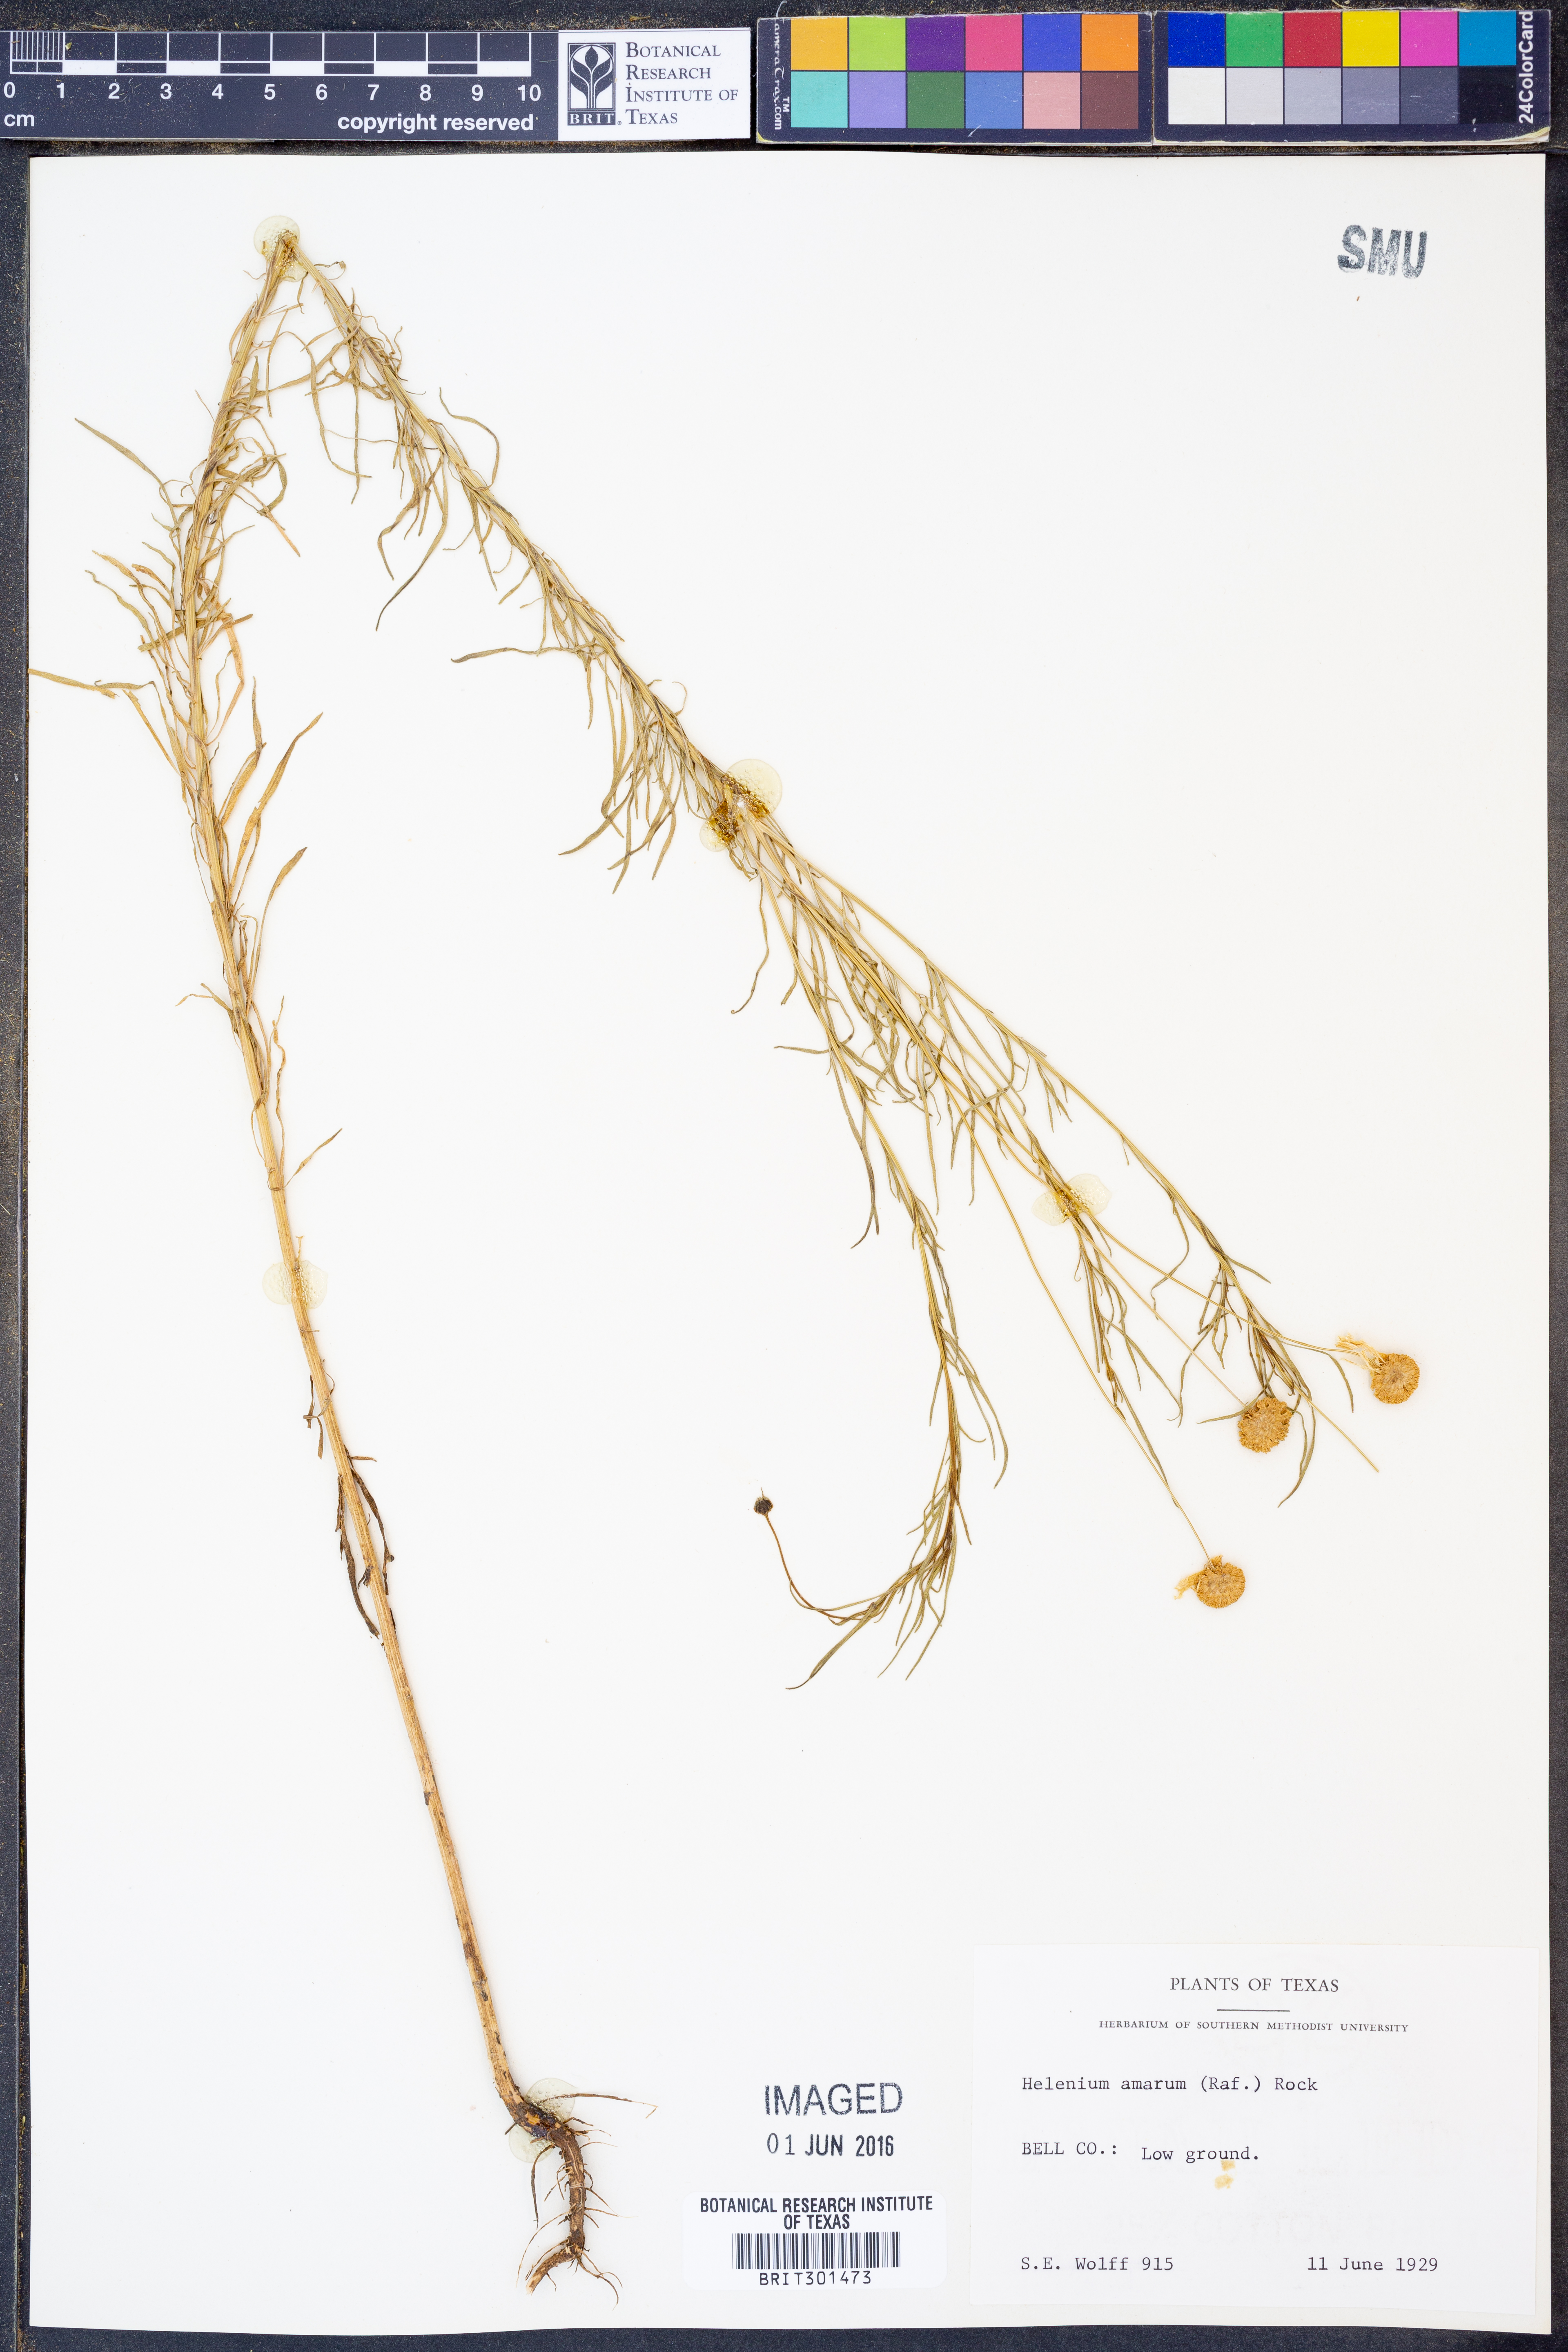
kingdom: Plantae
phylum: Tracheophyta
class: Magnoliopsida
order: Asterales
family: Asteraceae
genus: Helenium
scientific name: Helenium amarum
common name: Bitter sneezeweed
